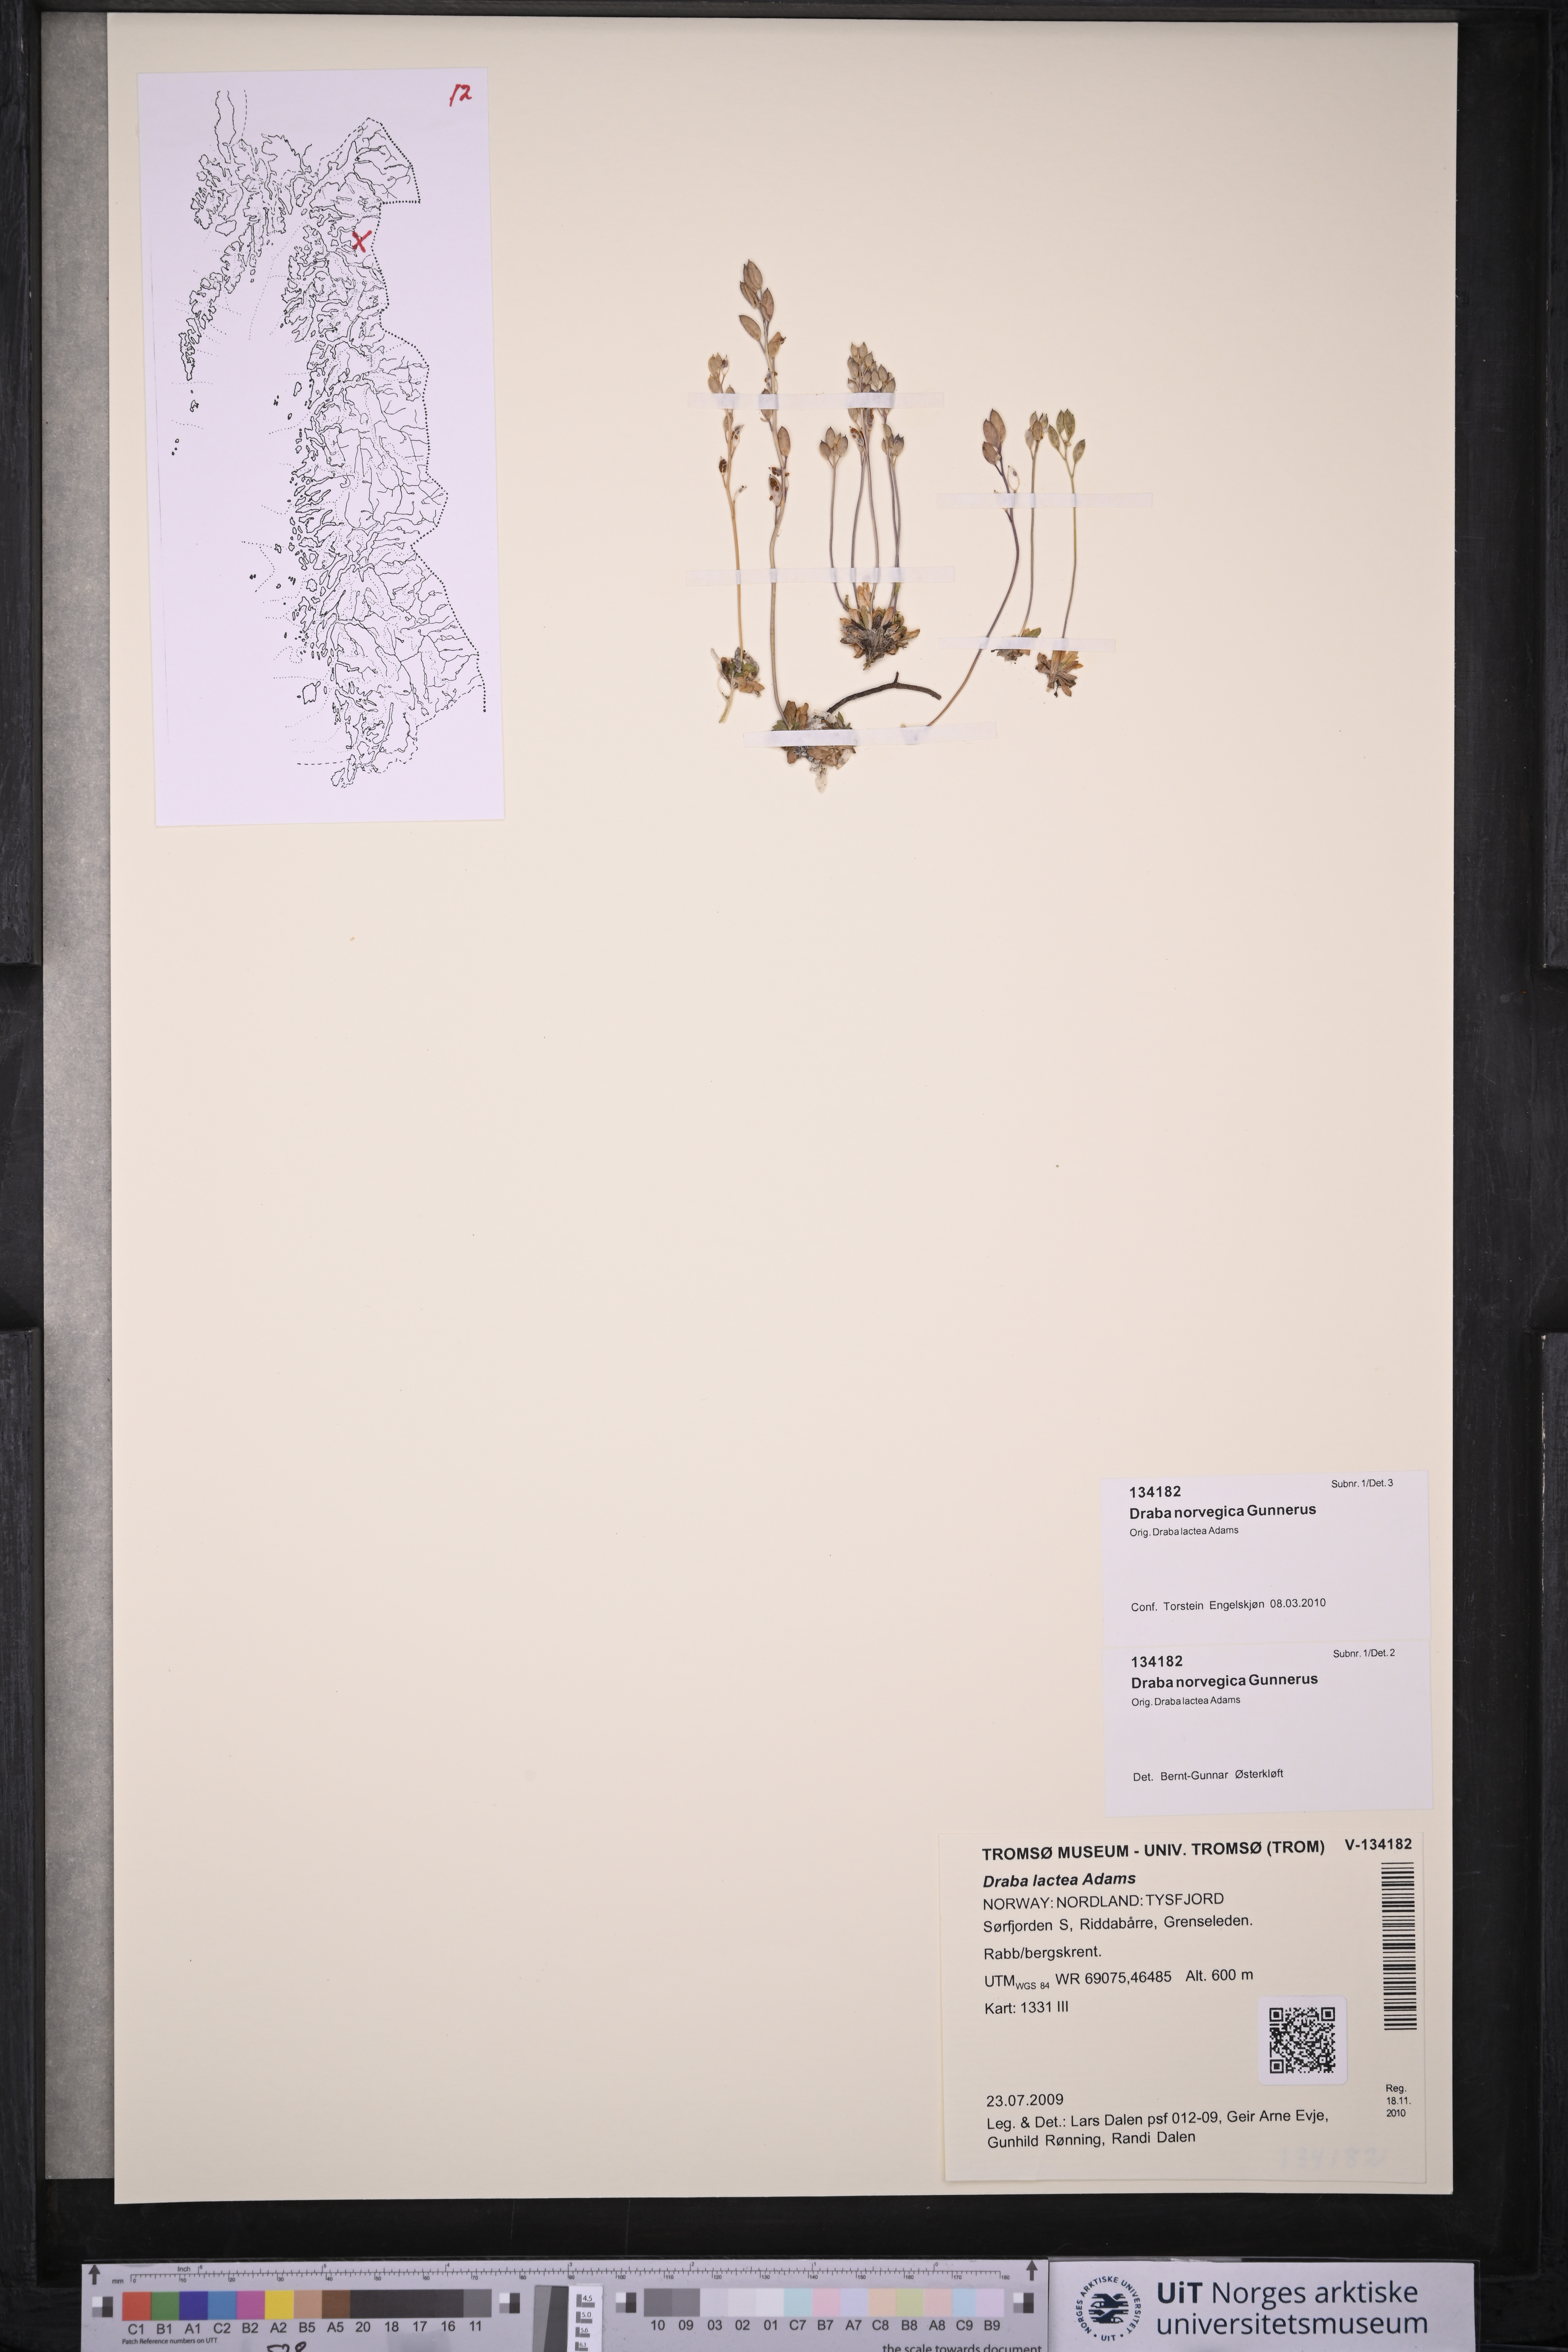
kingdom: Plantae
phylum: Tracheophyta
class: Magnoliopsida
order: Brassicales
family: Brassicaceae
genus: Draba
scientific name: Draba norvegica
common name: Rock whitlowgrass
